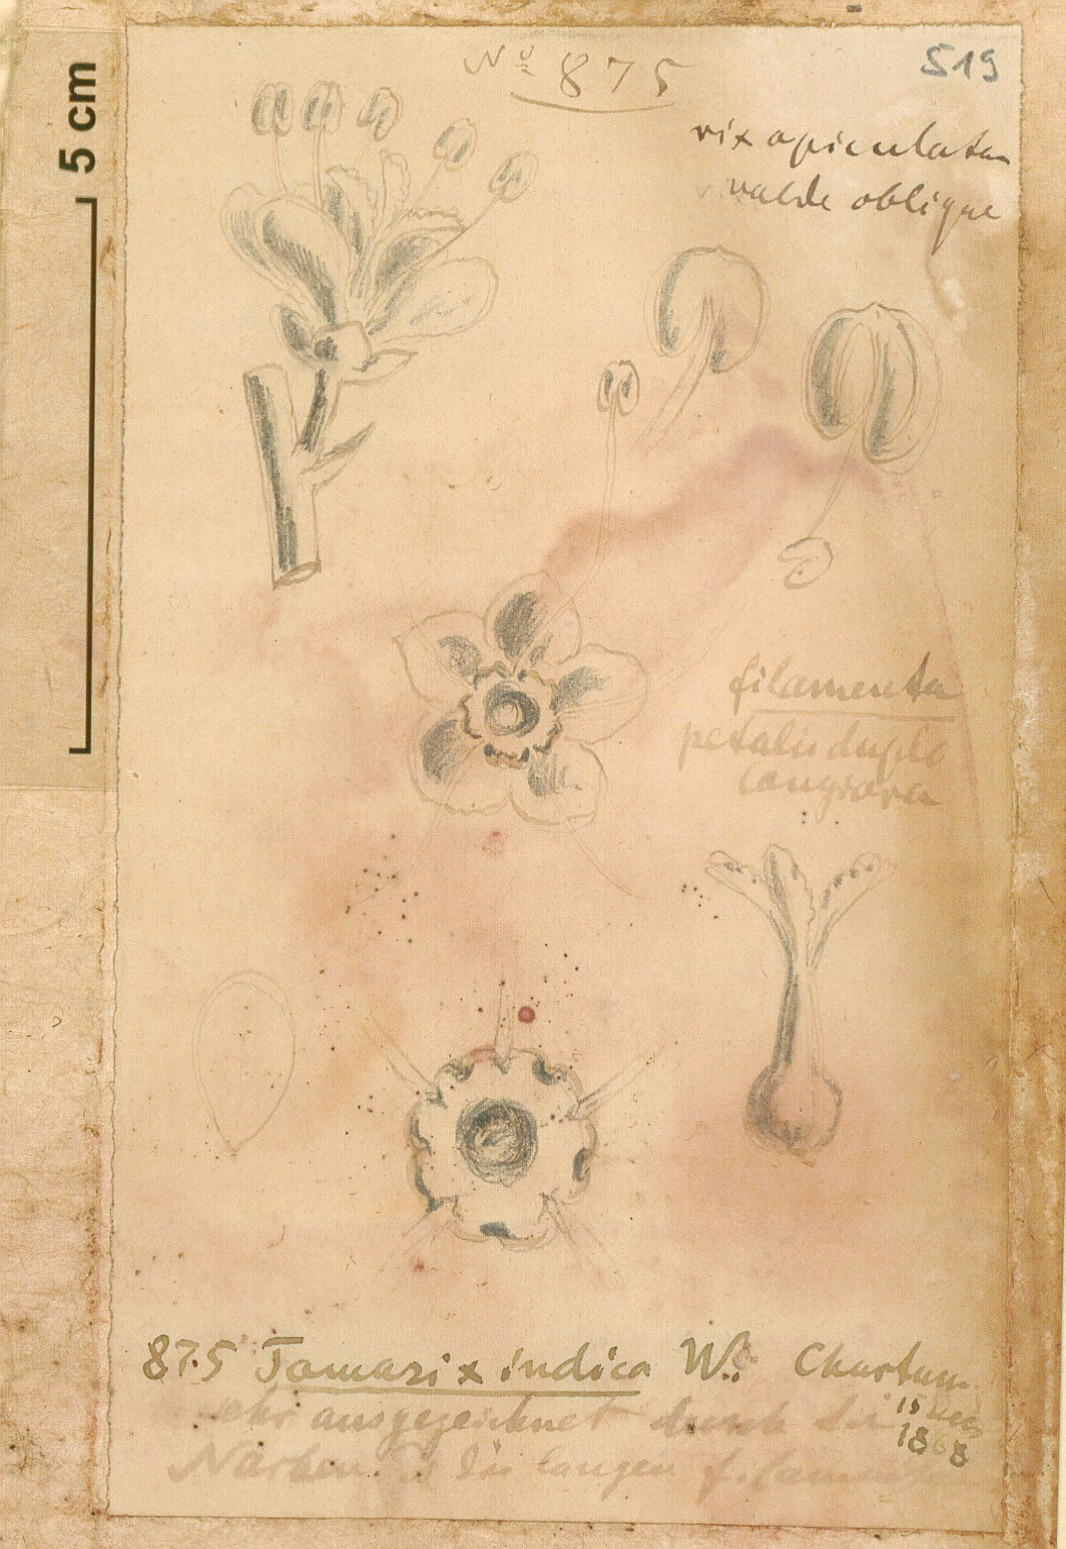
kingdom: Plantae
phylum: Tracheophyta
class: Magnoliopsida
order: Caryophyllales
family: Tamaricaceae
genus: Tamarix
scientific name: Tamarix gallica
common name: Tamarisk
